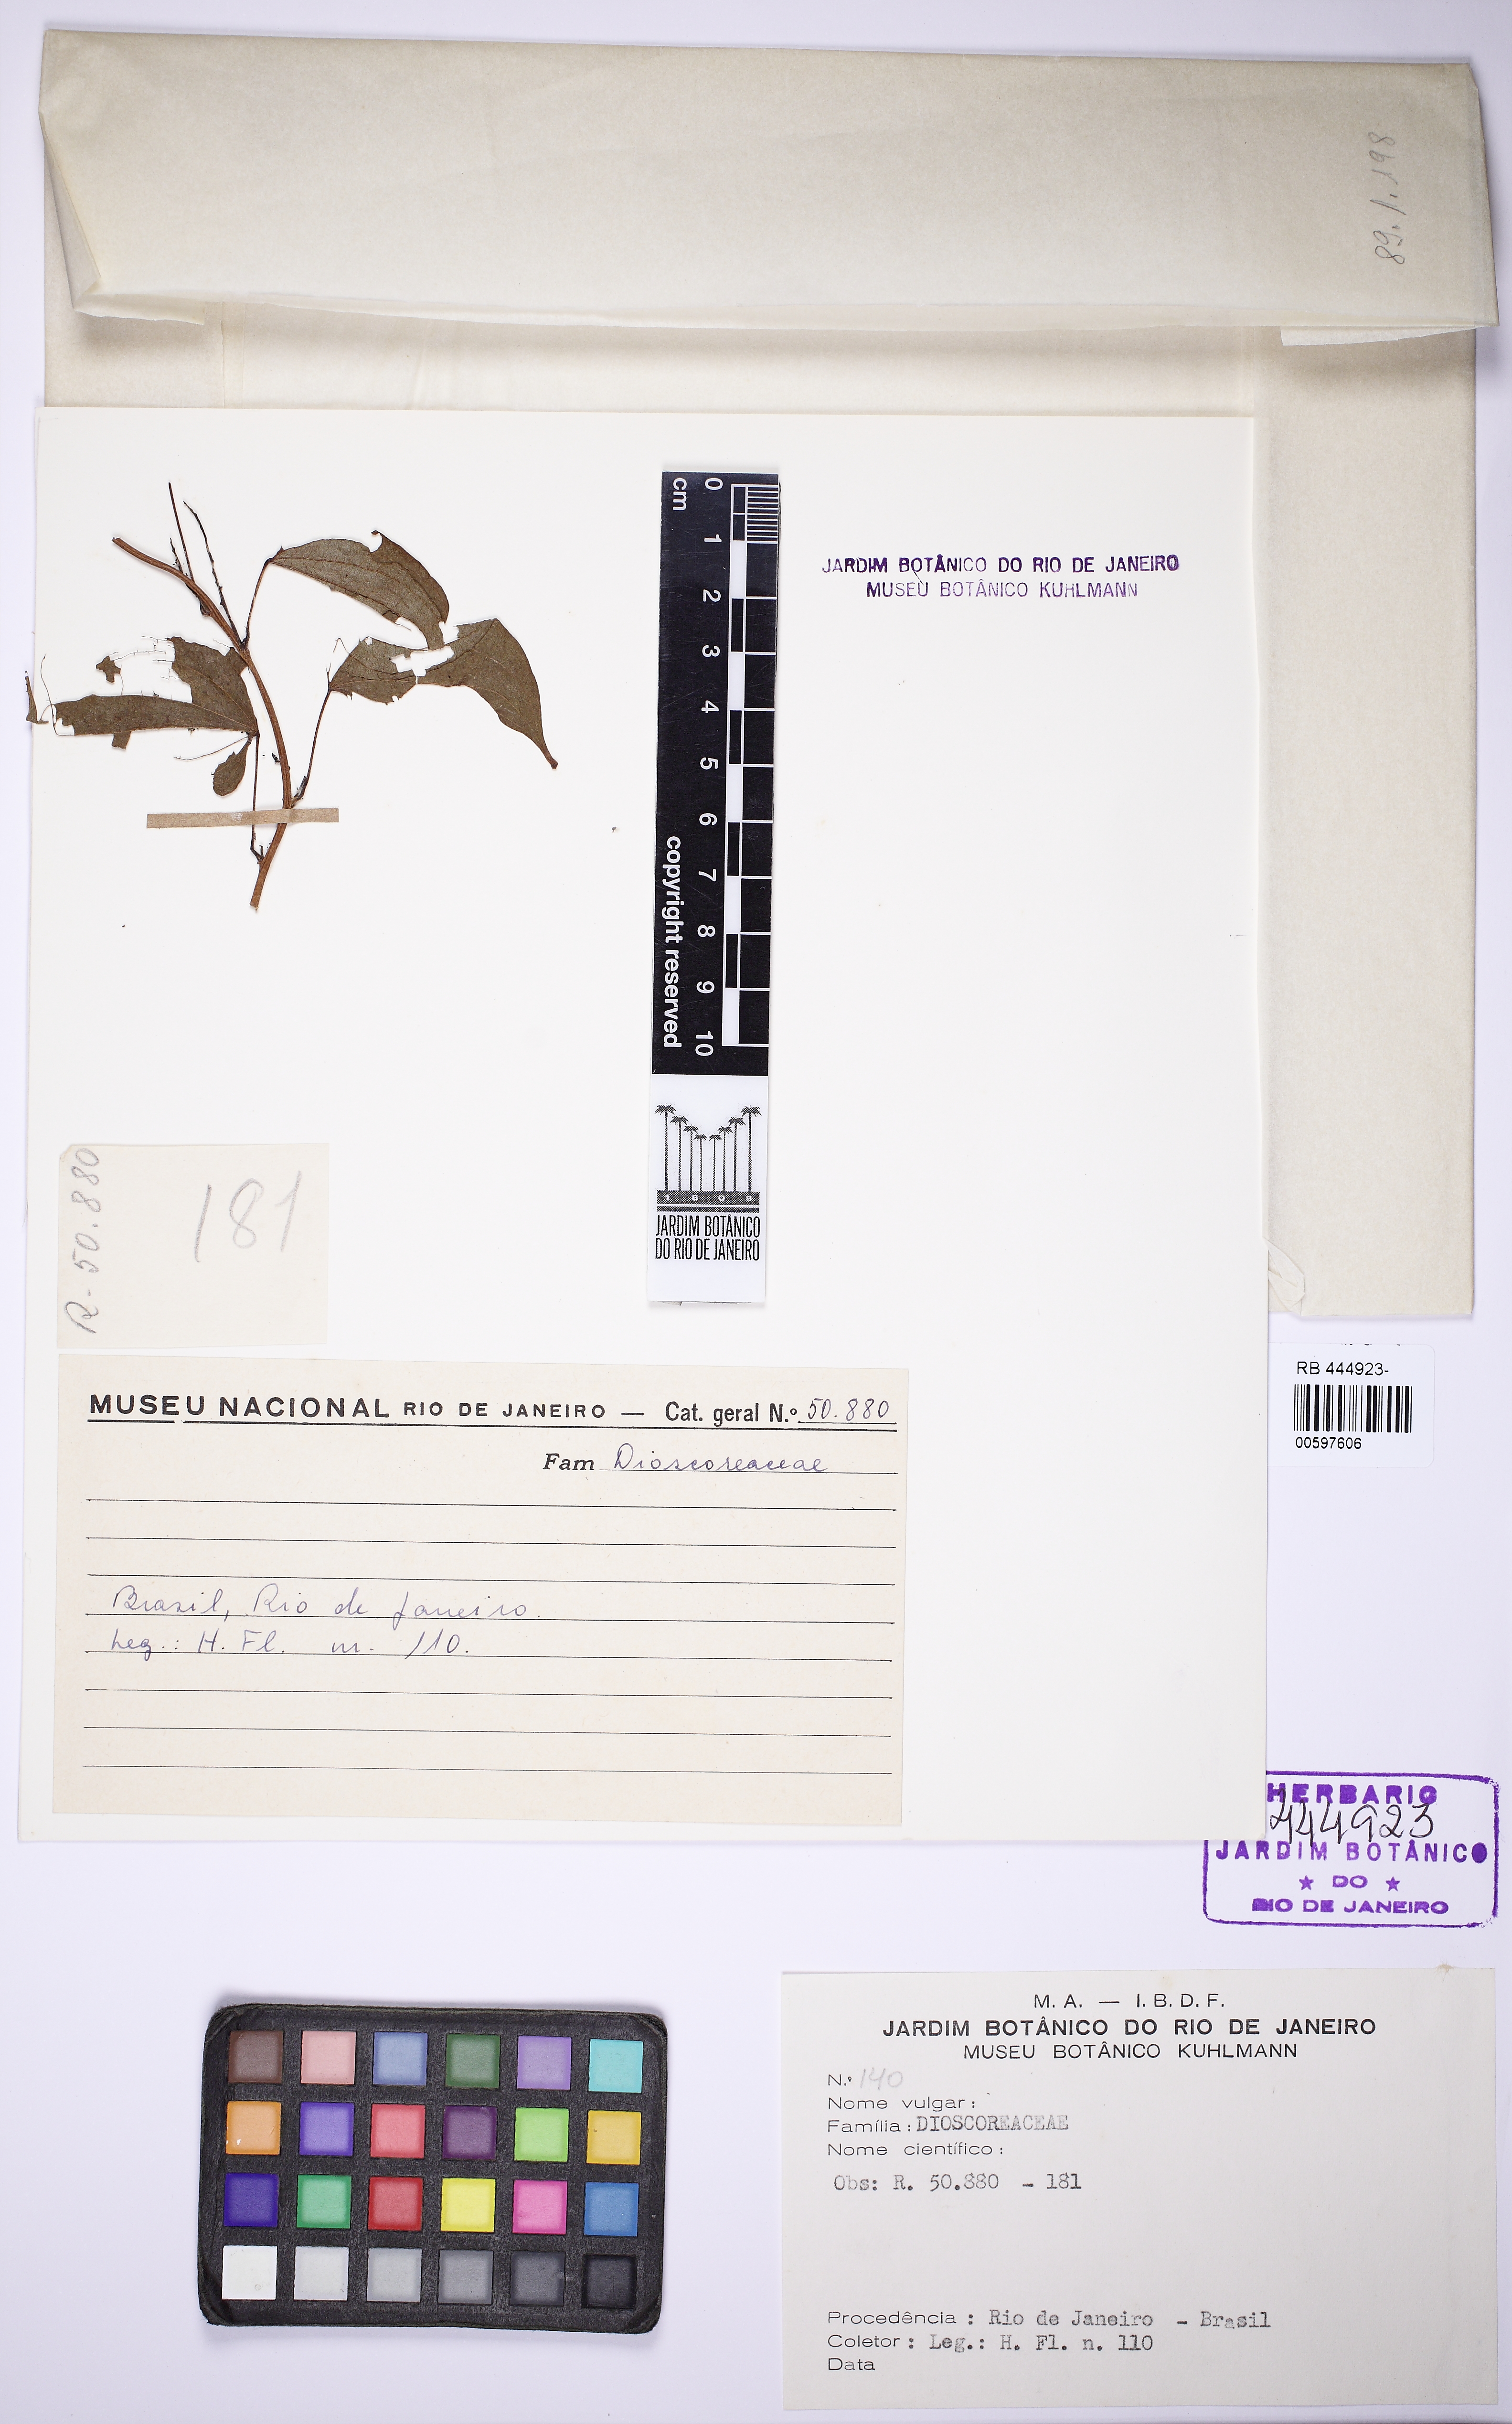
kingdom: Plantae
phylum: Tracheophyta
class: Liliopsida
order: Dioscoreales
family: Dioscoreaceae
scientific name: Dioscoreaceae
